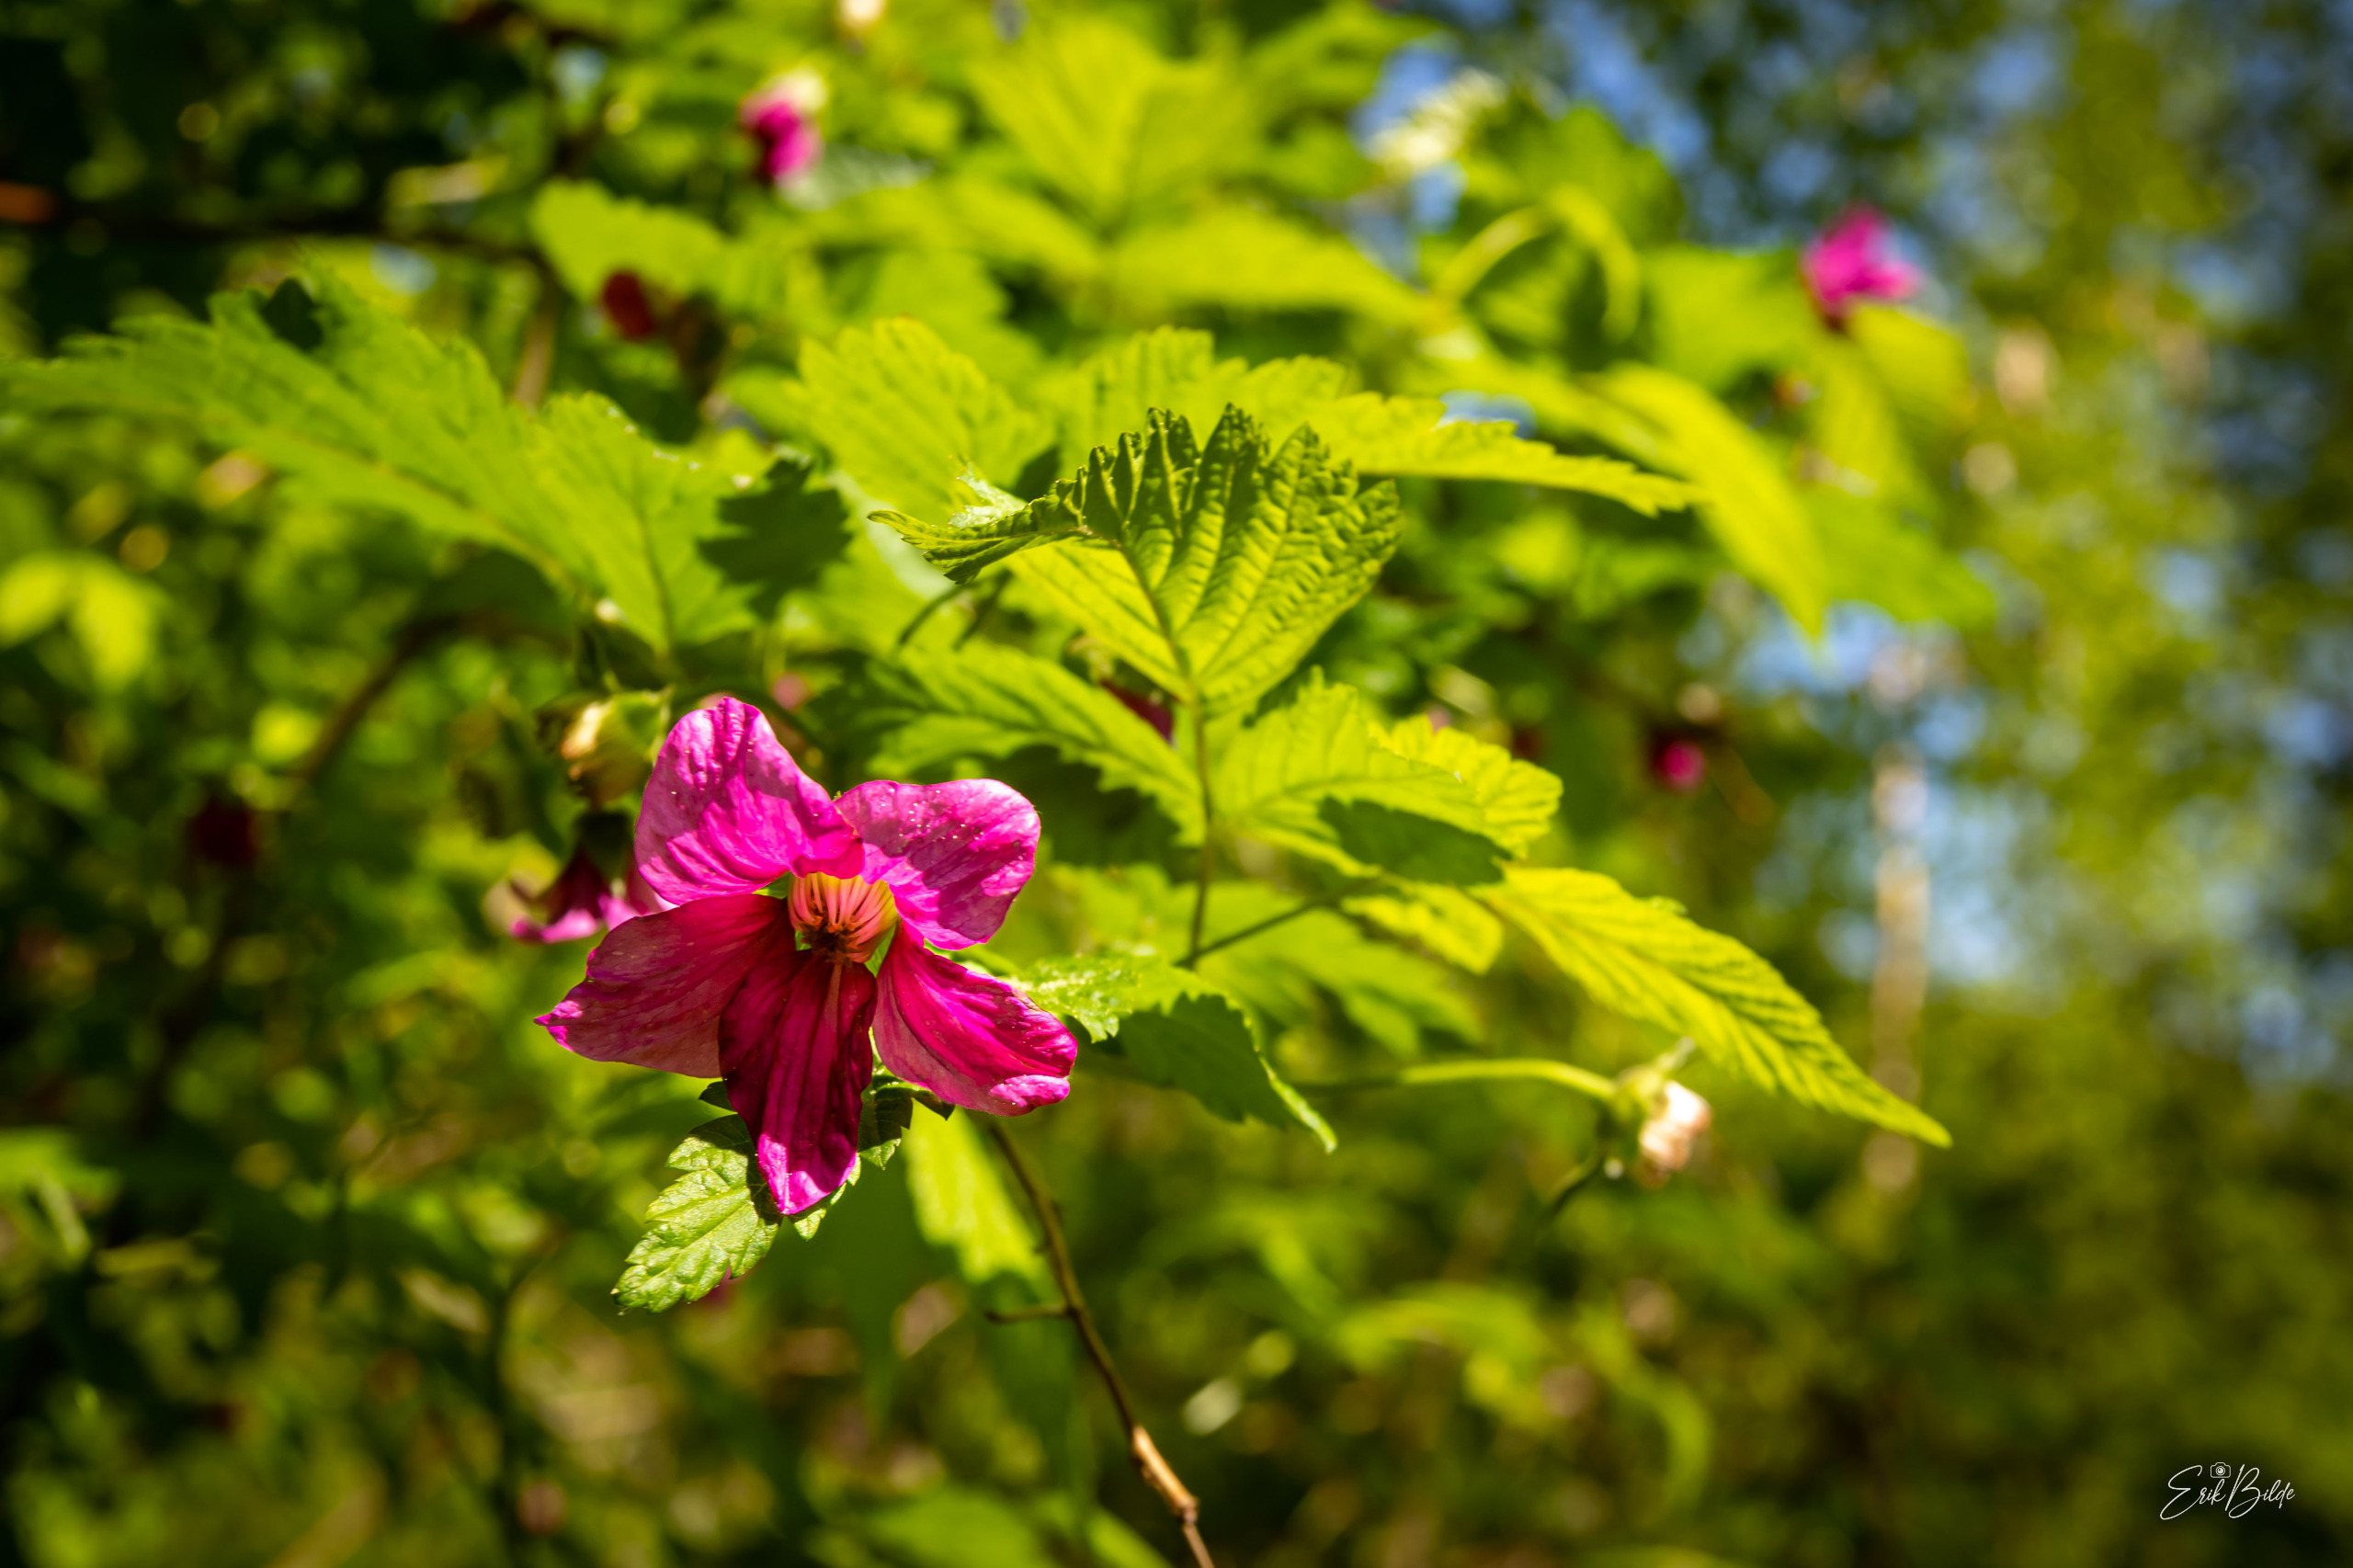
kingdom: Plantae
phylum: Tracheophyta
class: Magnoliopsida
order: Rosales
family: Rosaceae
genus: Rubus
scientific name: Rubus spectabilis
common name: Laksebær
